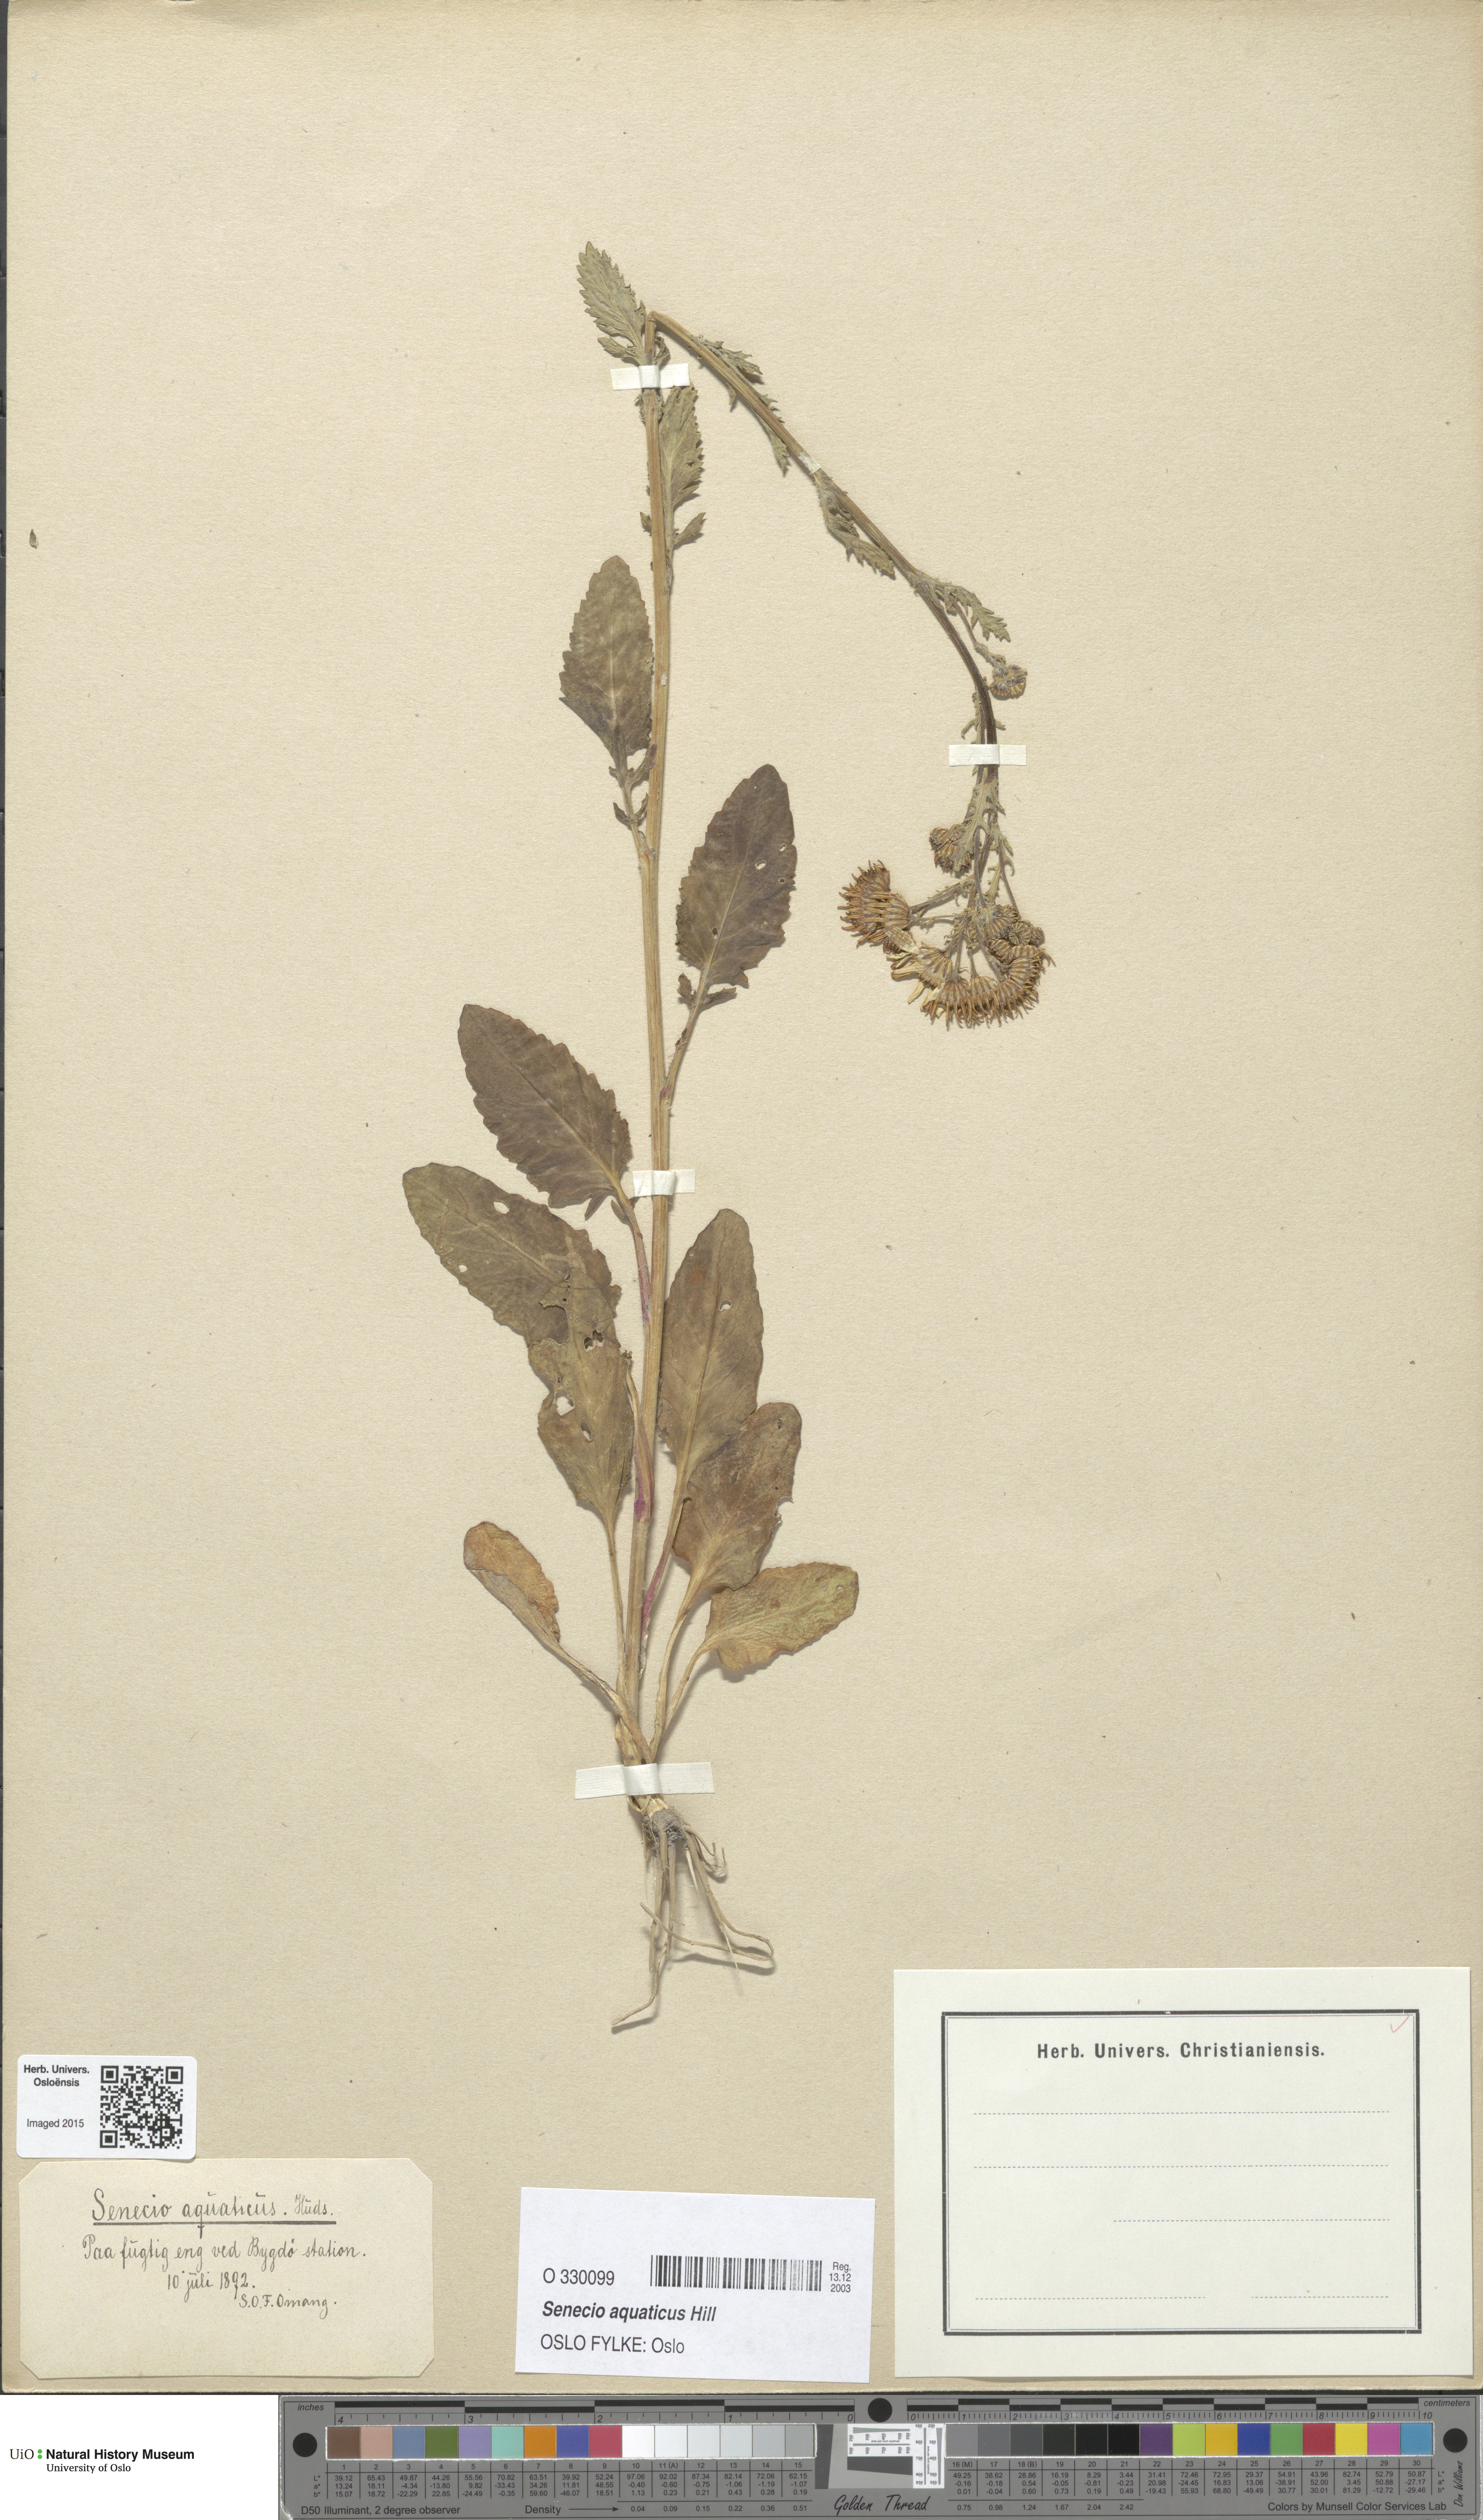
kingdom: Plantae
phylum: Tracheophyta
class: Magnoliopsida
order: Asterales
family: Asteraceae
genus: Jacobaea
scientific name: Jacobaea aquatica
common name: Water ragwort
